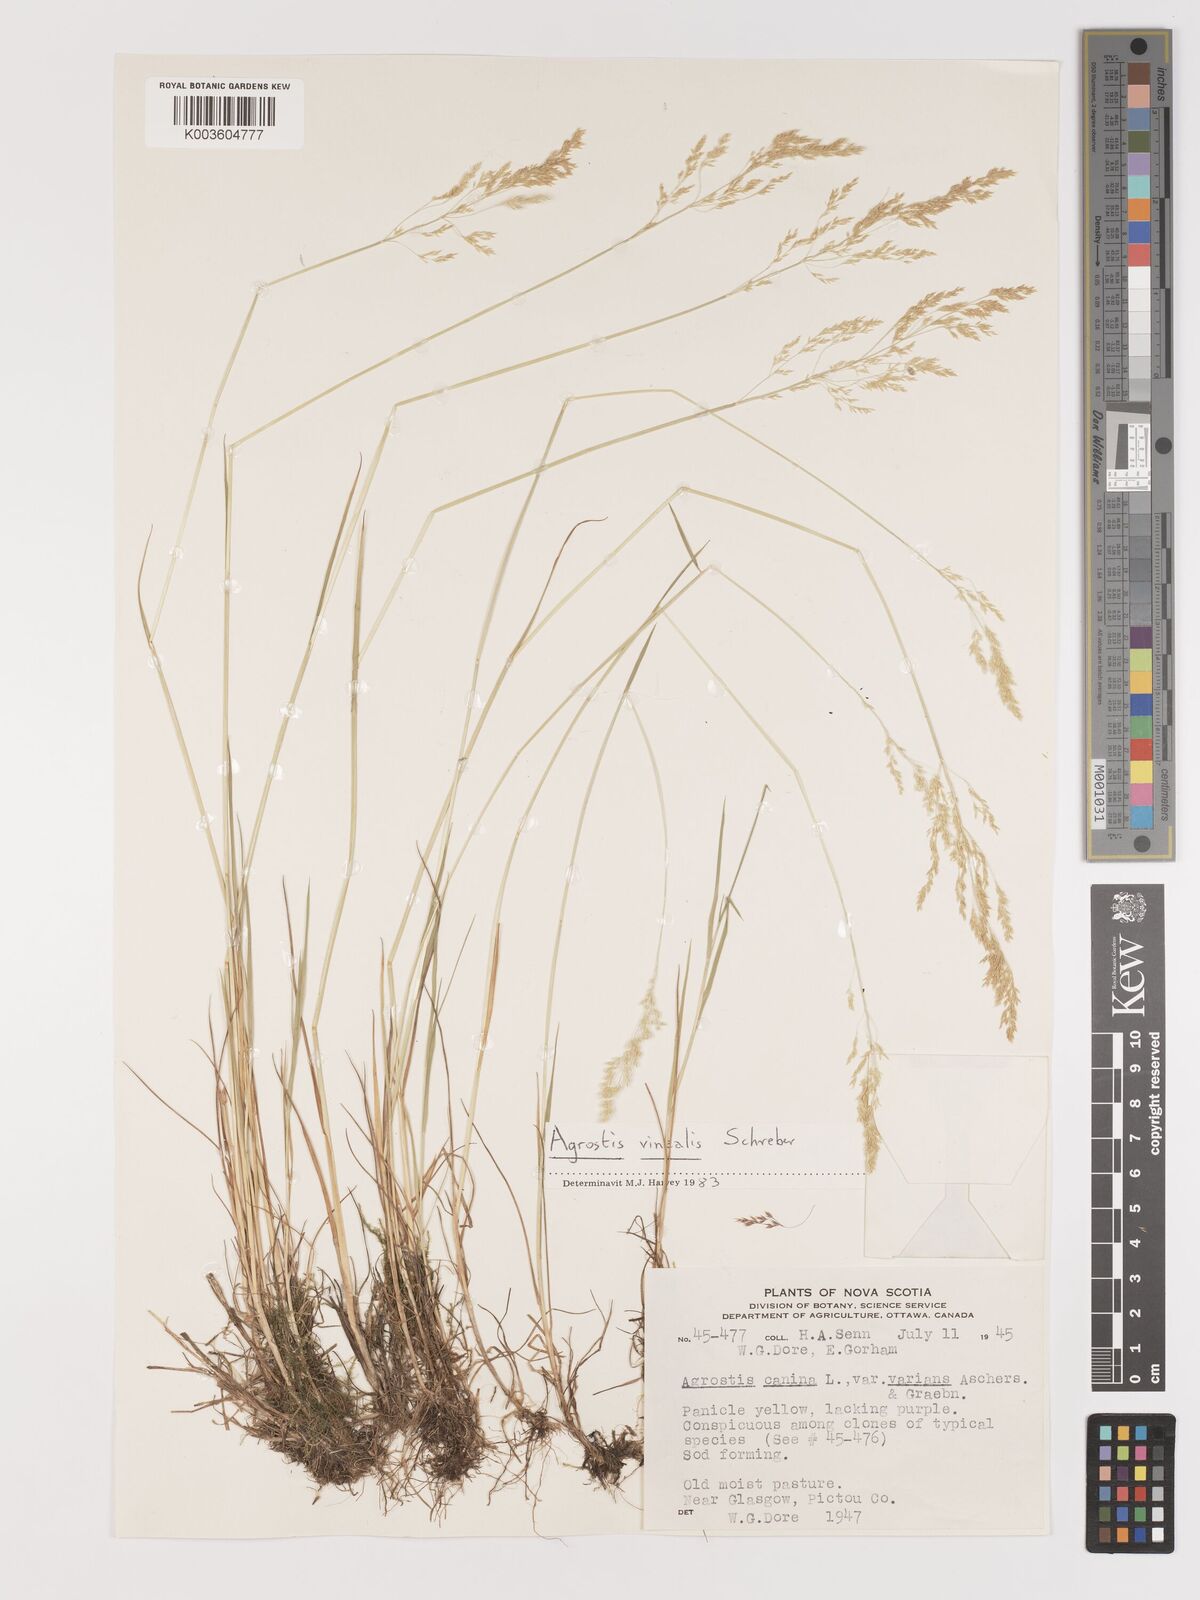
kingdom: Plantae
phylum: Tracheophyta
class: Liliopsida
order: Poales
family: Poaceae
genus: Agrostis
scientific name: Agrostis vinealis
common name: Brown bent
